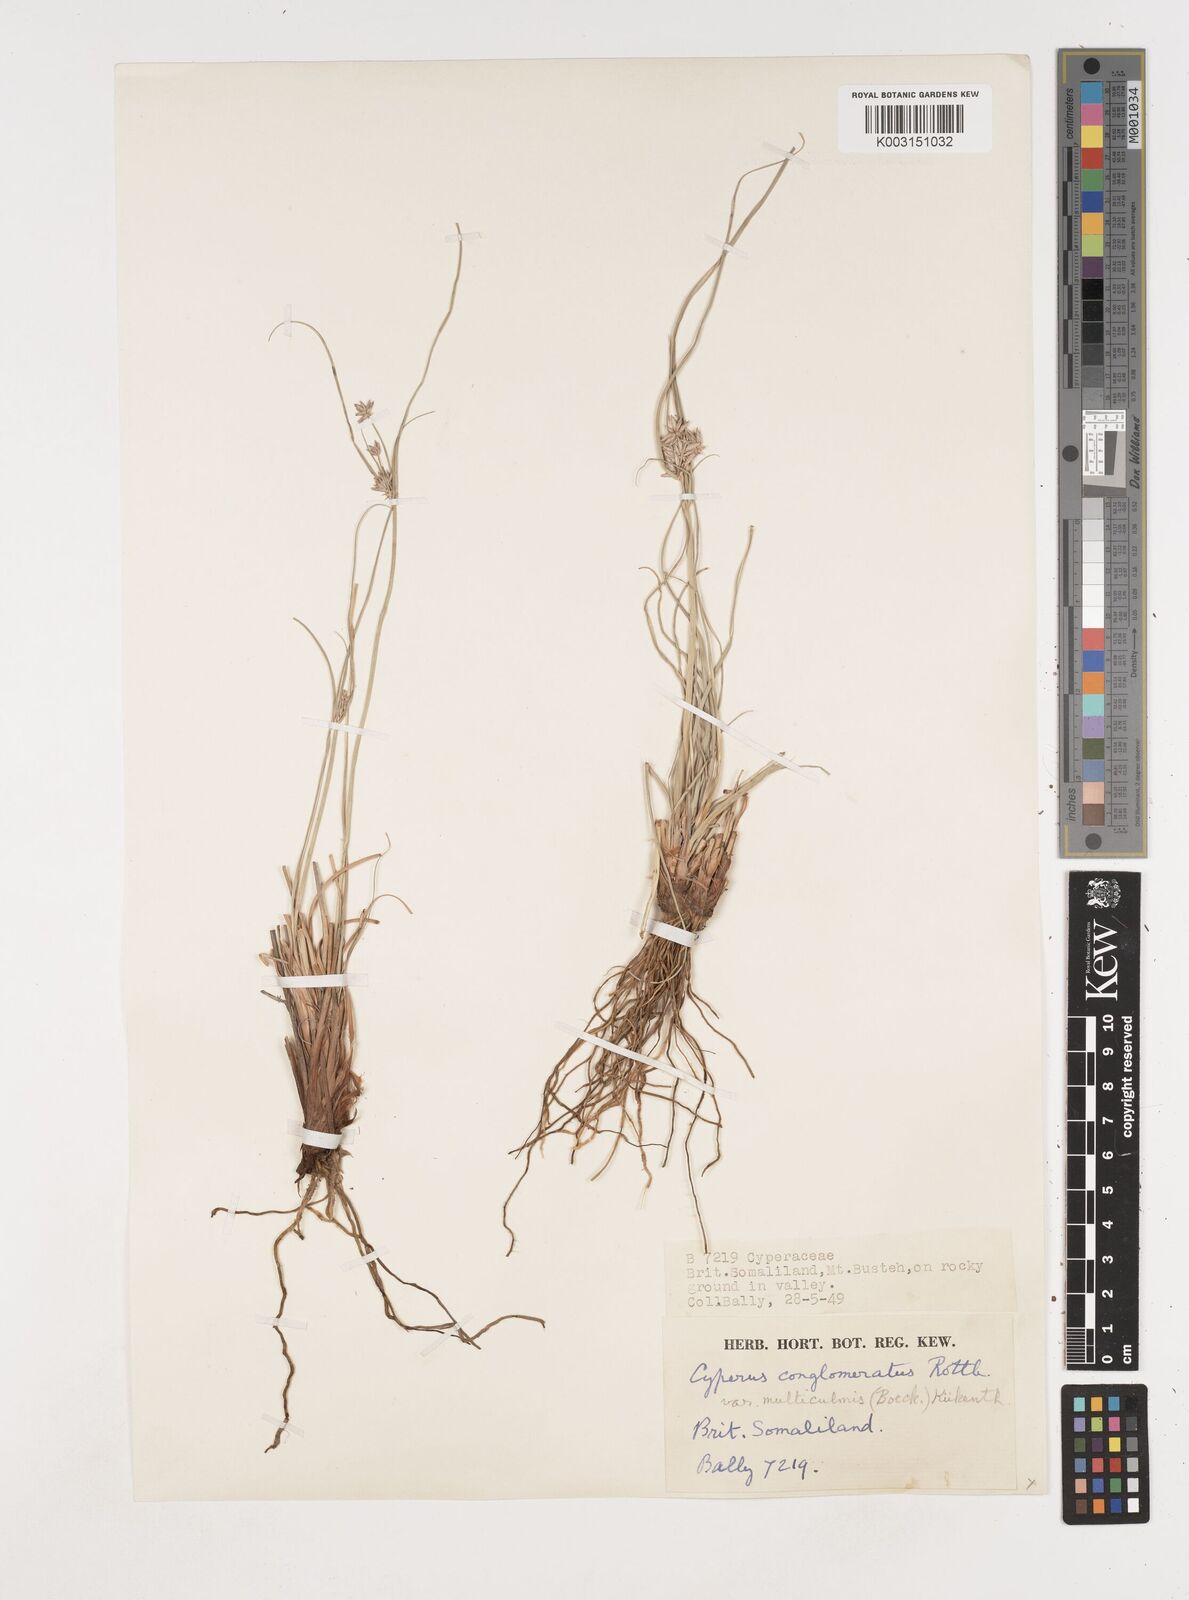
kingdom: Plantae
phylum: Tracheophyta
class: Liliopsida
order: Poales
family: Cyperaceae
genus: Cyperus
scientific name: Cyperus conglomeratus
